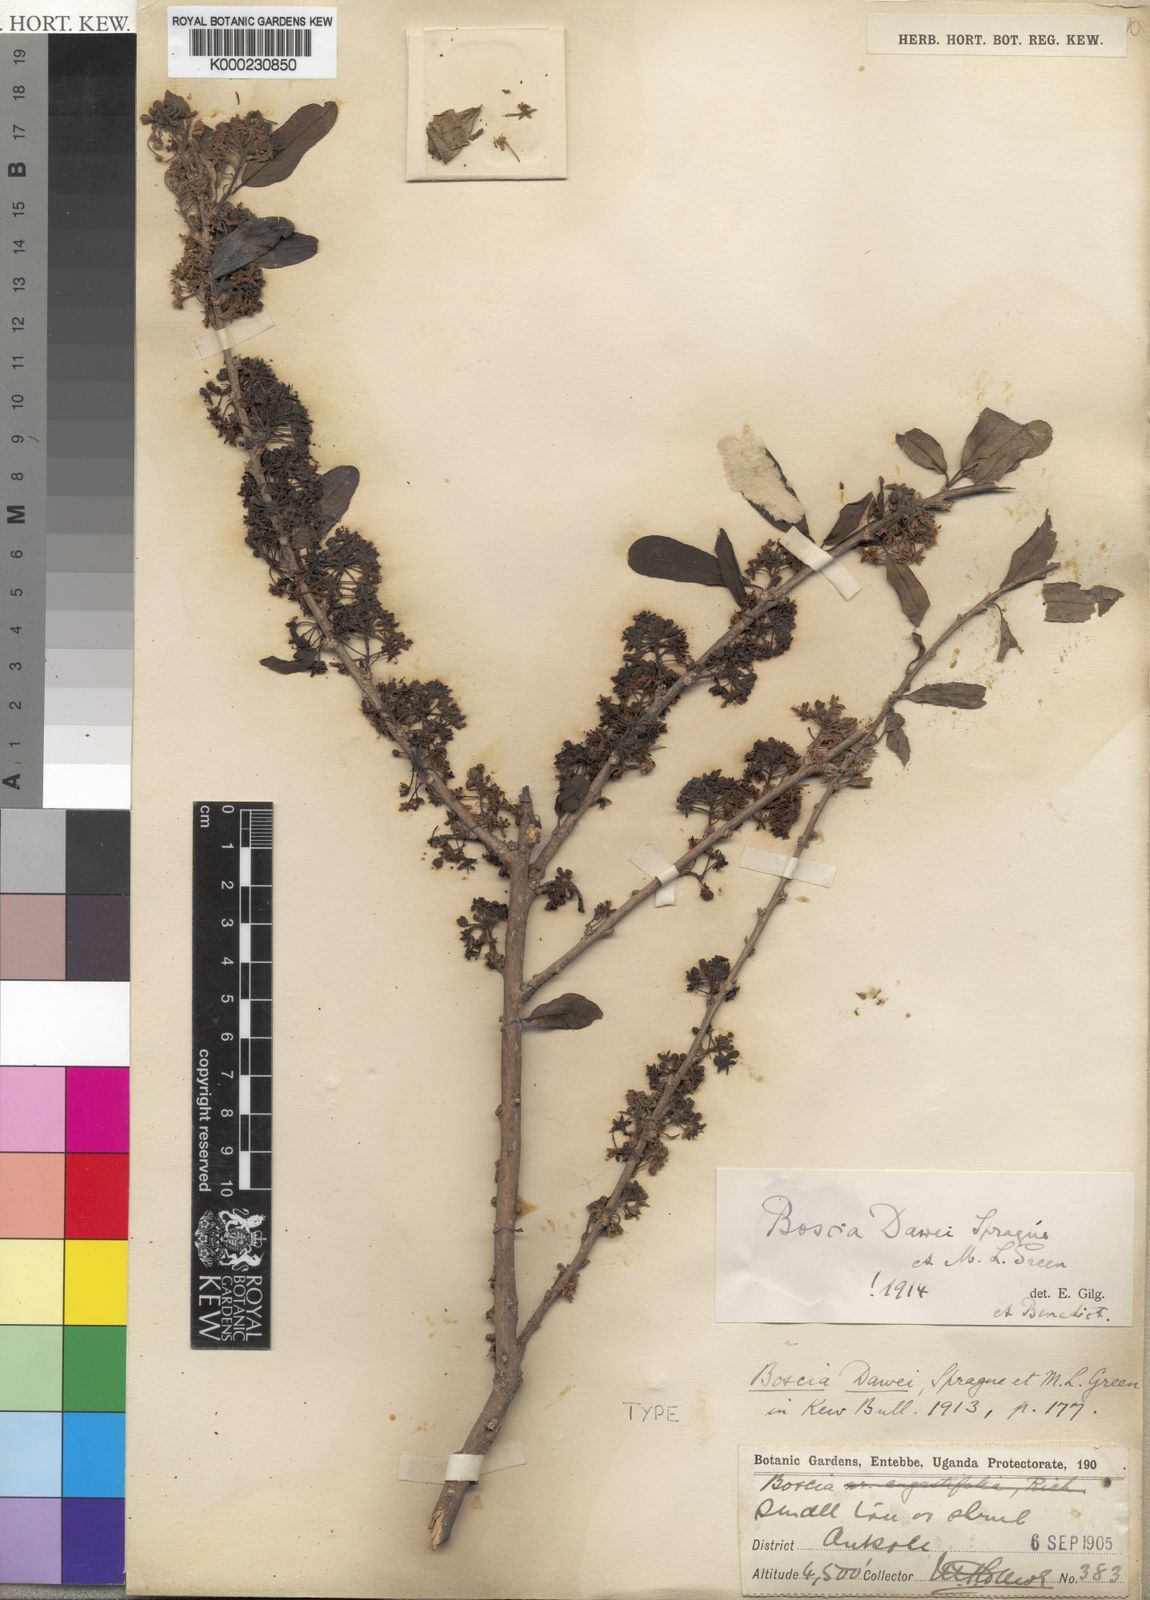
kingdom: Plantae
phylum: Tracheophyta
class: Magnoliopsida
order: Brassicales
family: Capparaceae
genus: Boscia
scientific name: Boscia
